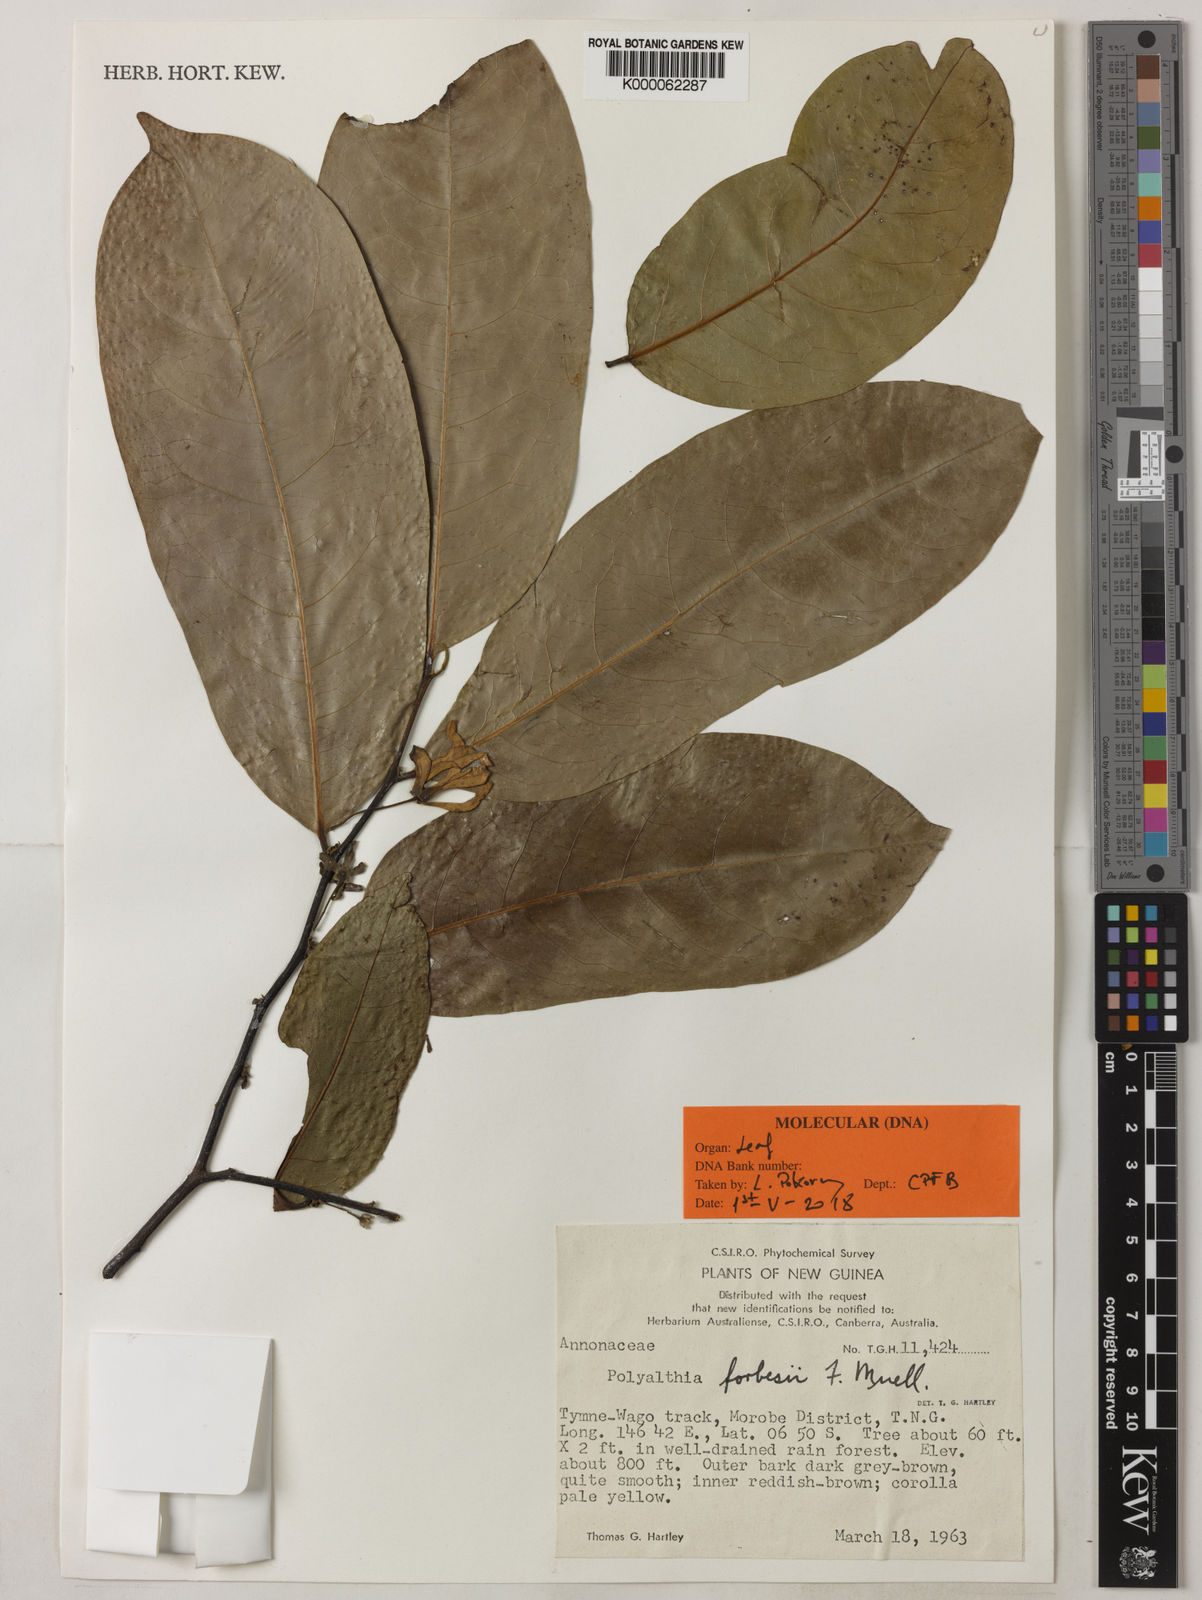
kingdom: Plantae
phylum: Tracheophyta
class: Magnoliopsida
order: Magnoliales
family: Annonaceae
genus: Hubera
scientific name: Hubera forbesii
